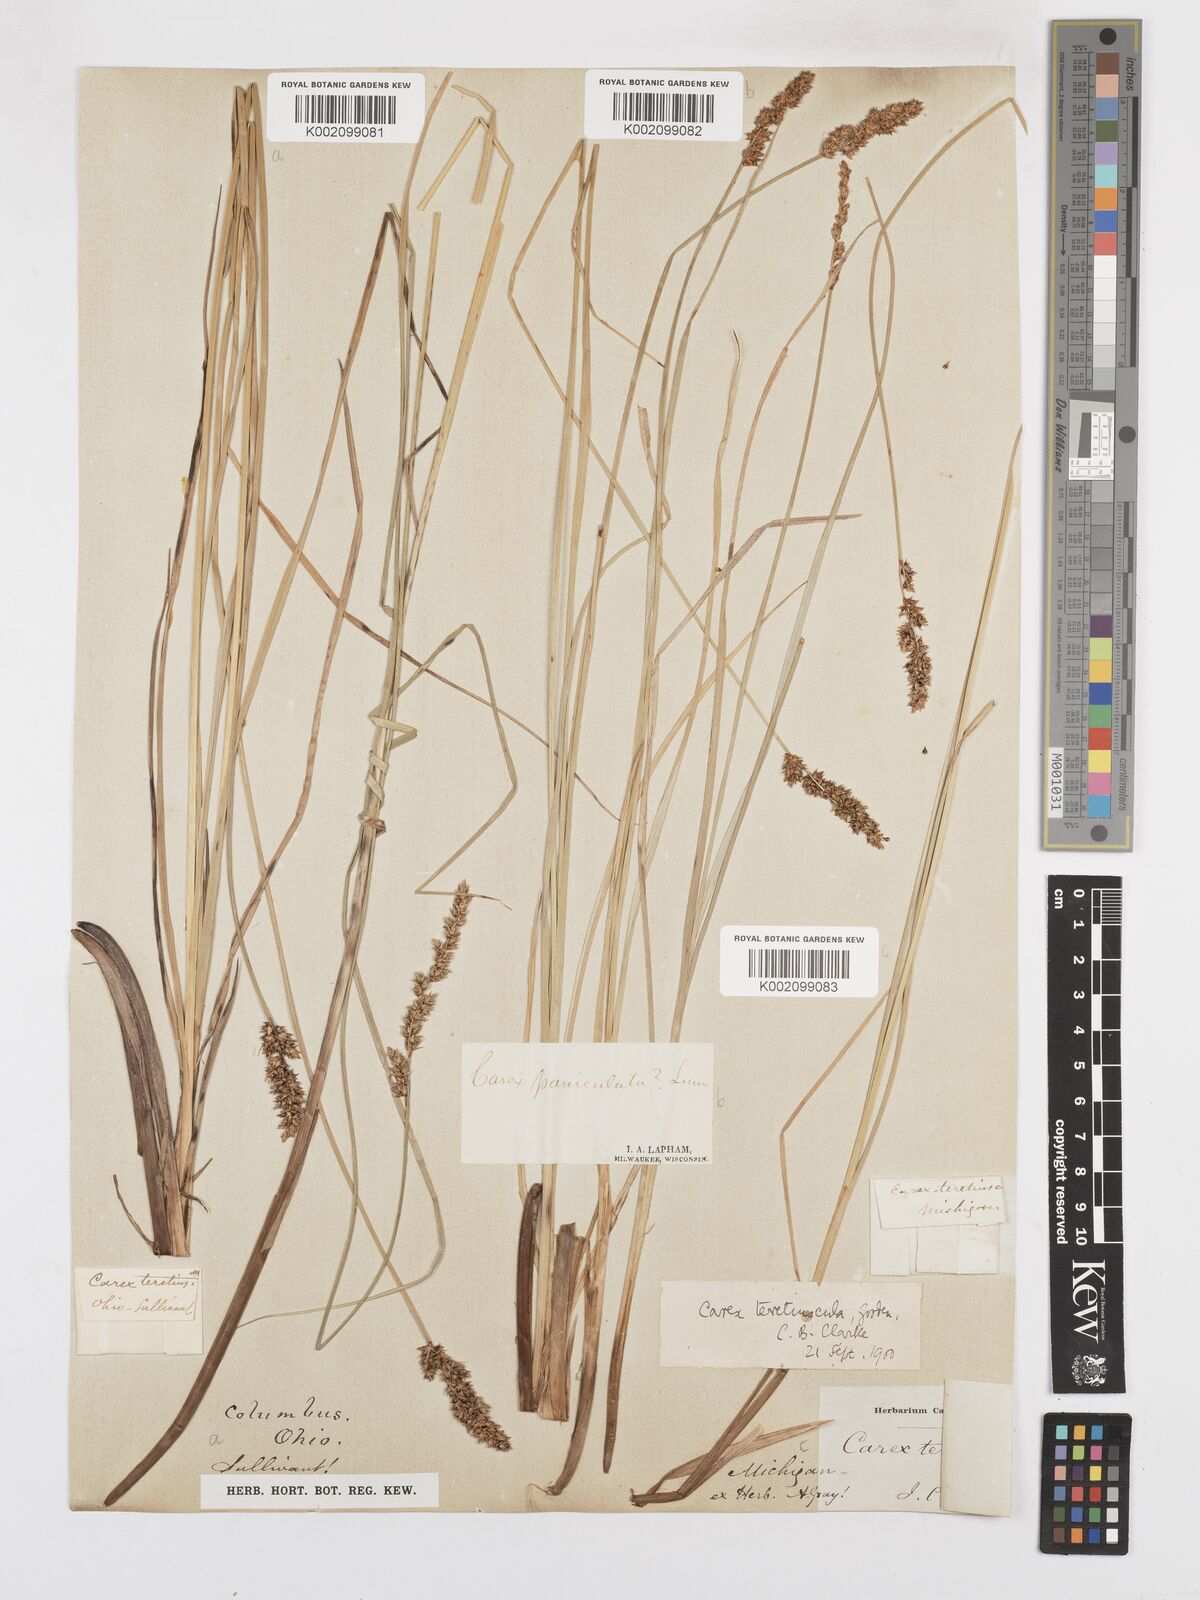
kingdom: Plantae
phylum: Tracheophyta
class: Liliopsida
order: Poales
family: Cyperaceae
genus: Carex
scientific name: Carex prairea
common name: Prairie sedge
